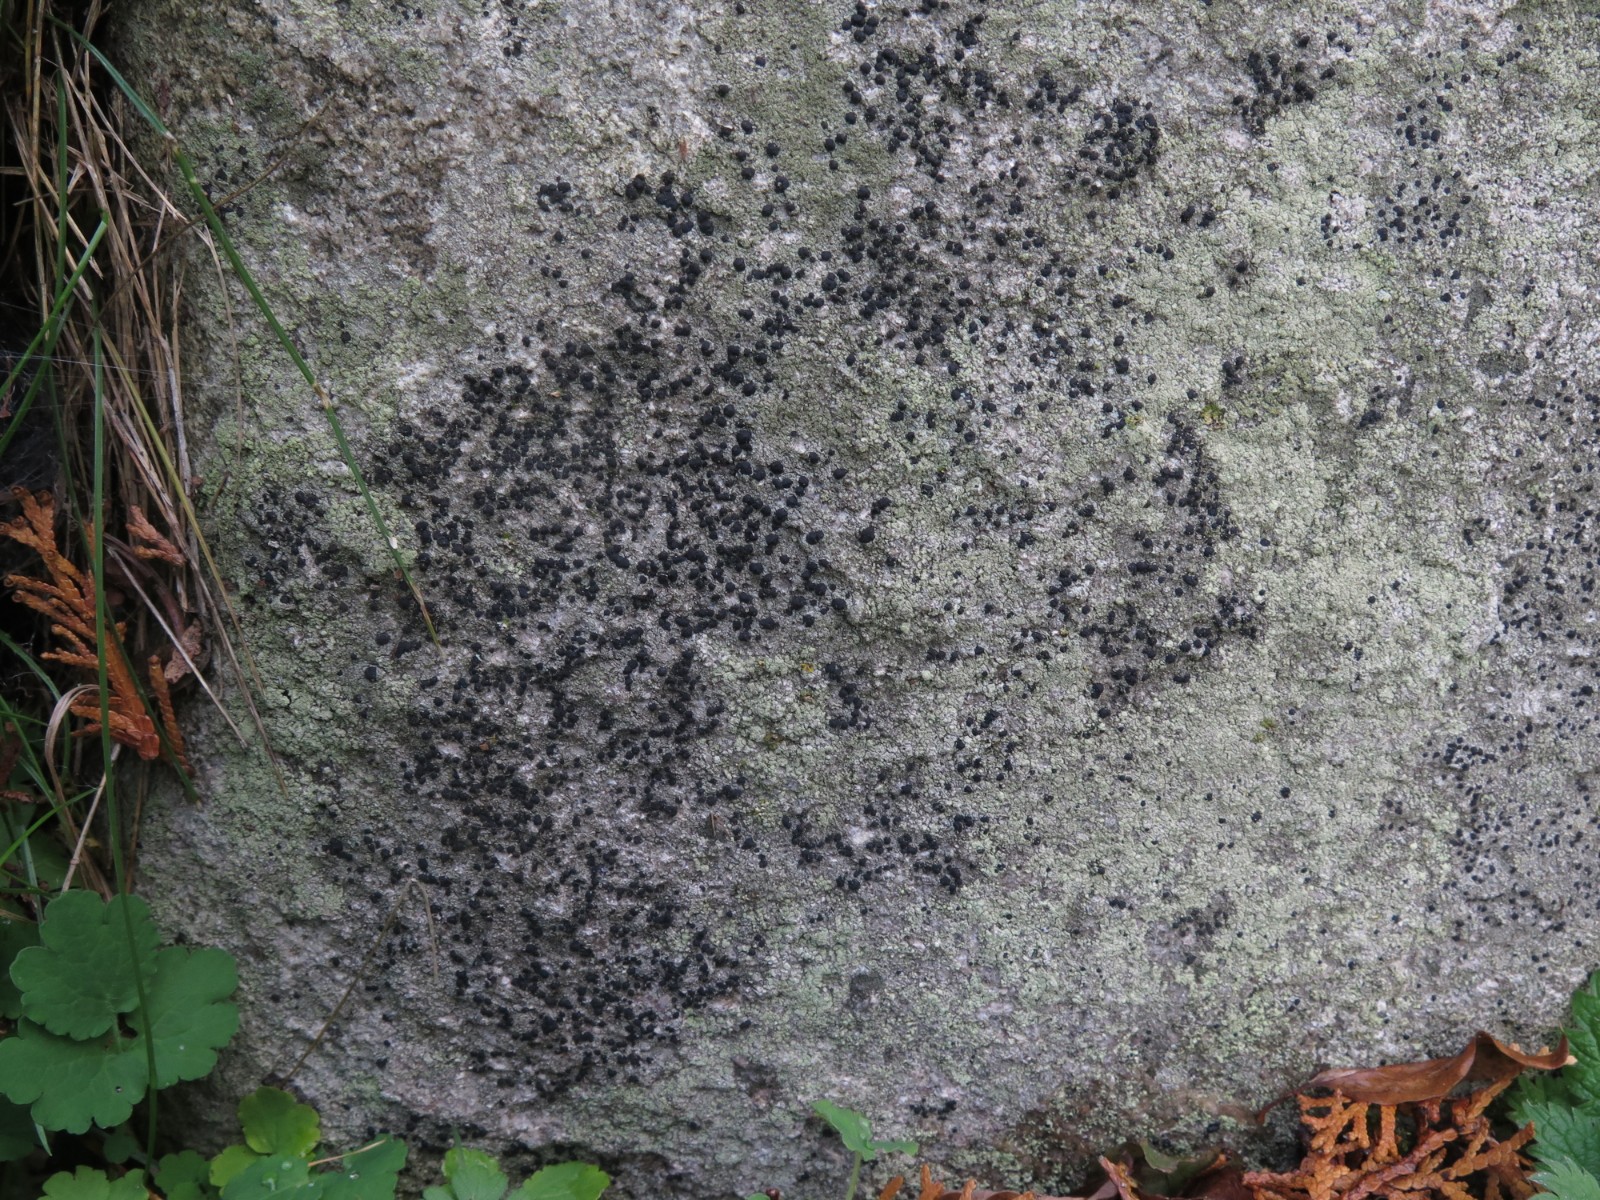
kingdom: Fungi
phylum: Ascomycota
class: Lecanoromycetes
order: Lecanorales
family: Lecanoraceae
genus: Lecidella
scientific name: Lecidella scabra
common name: skurvet skivelav
